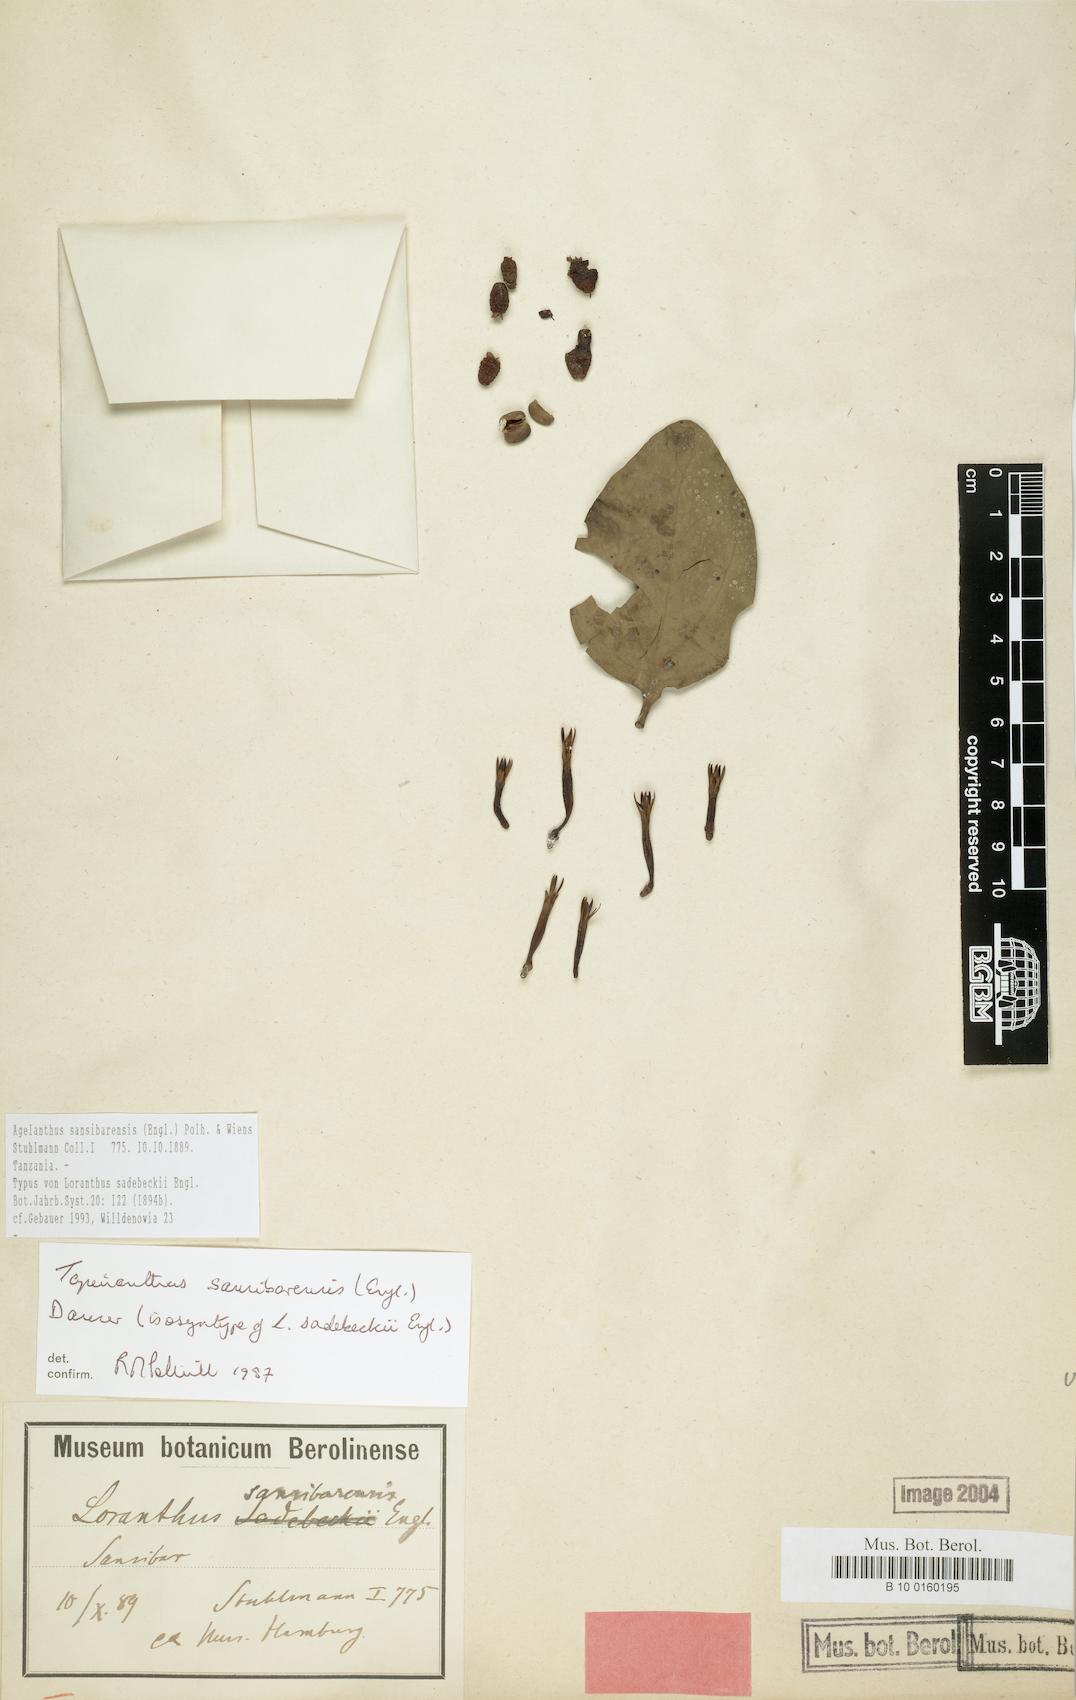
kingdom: Plantae
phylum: Tracheophyta
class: Magnoliopsida
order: Santalales
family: Loranthaceae
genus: Agelanthus
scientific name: Agelanthus sansibarensis
